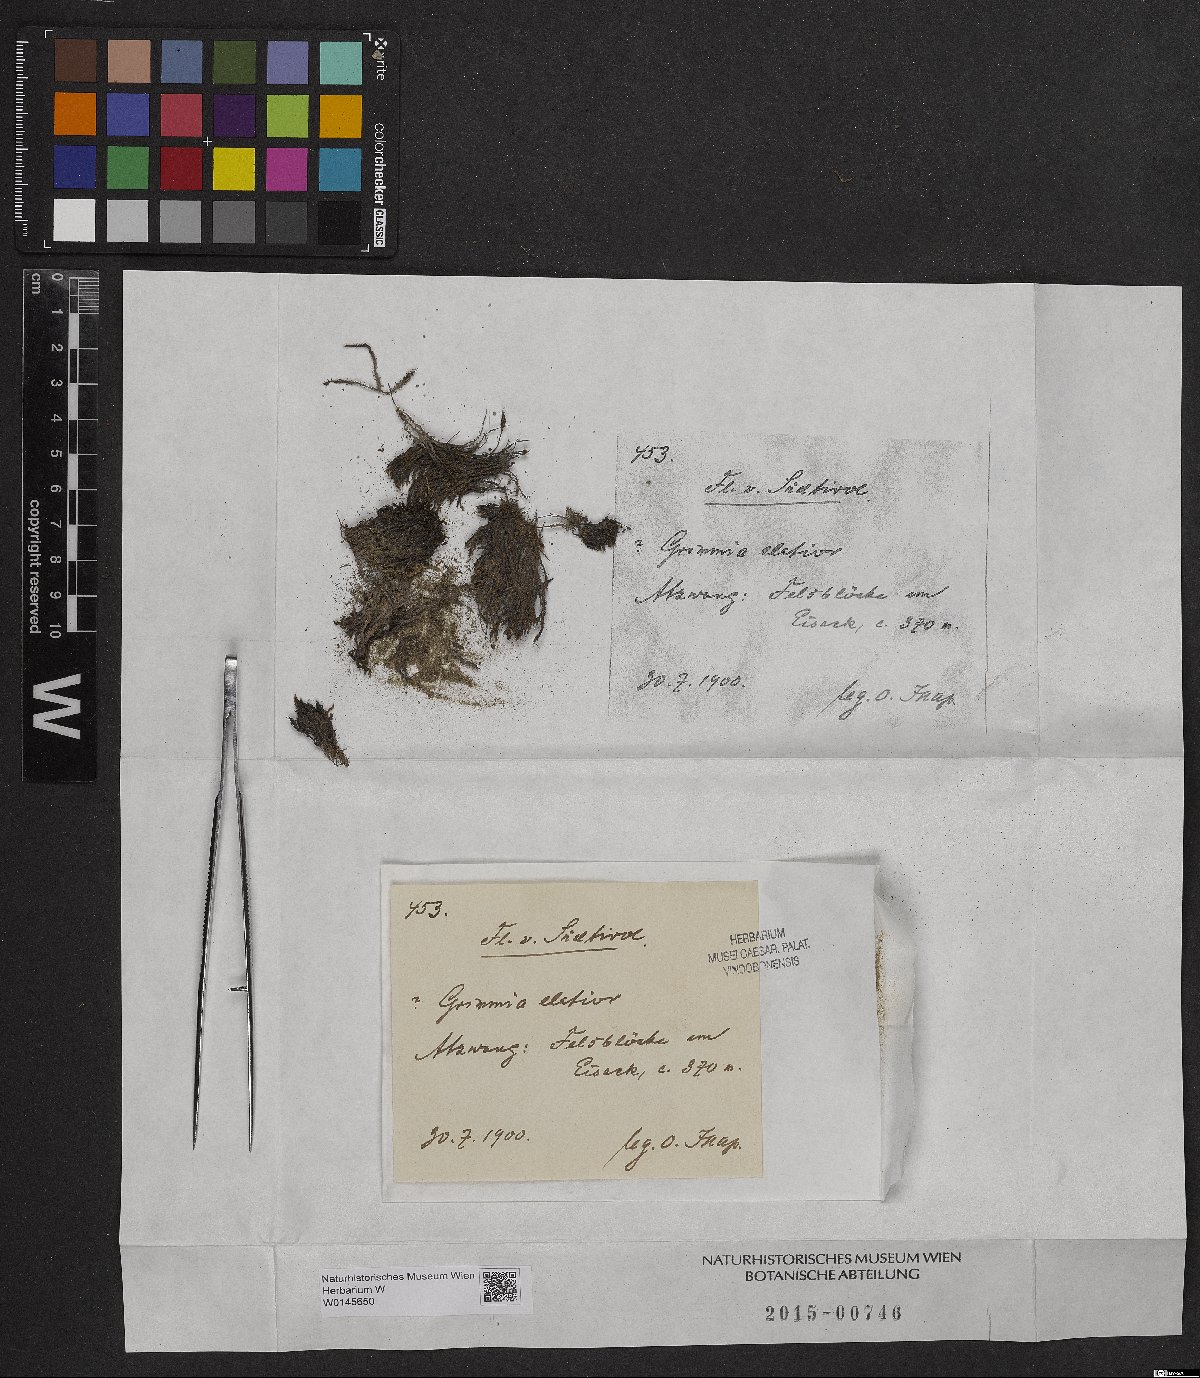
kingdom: Plantae
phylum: Bryophyta
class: Bryopsida
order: Grimmiales
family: Grimmiaceae
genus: Grimmia
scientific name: Grimmia elatior
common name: Large grimmia
